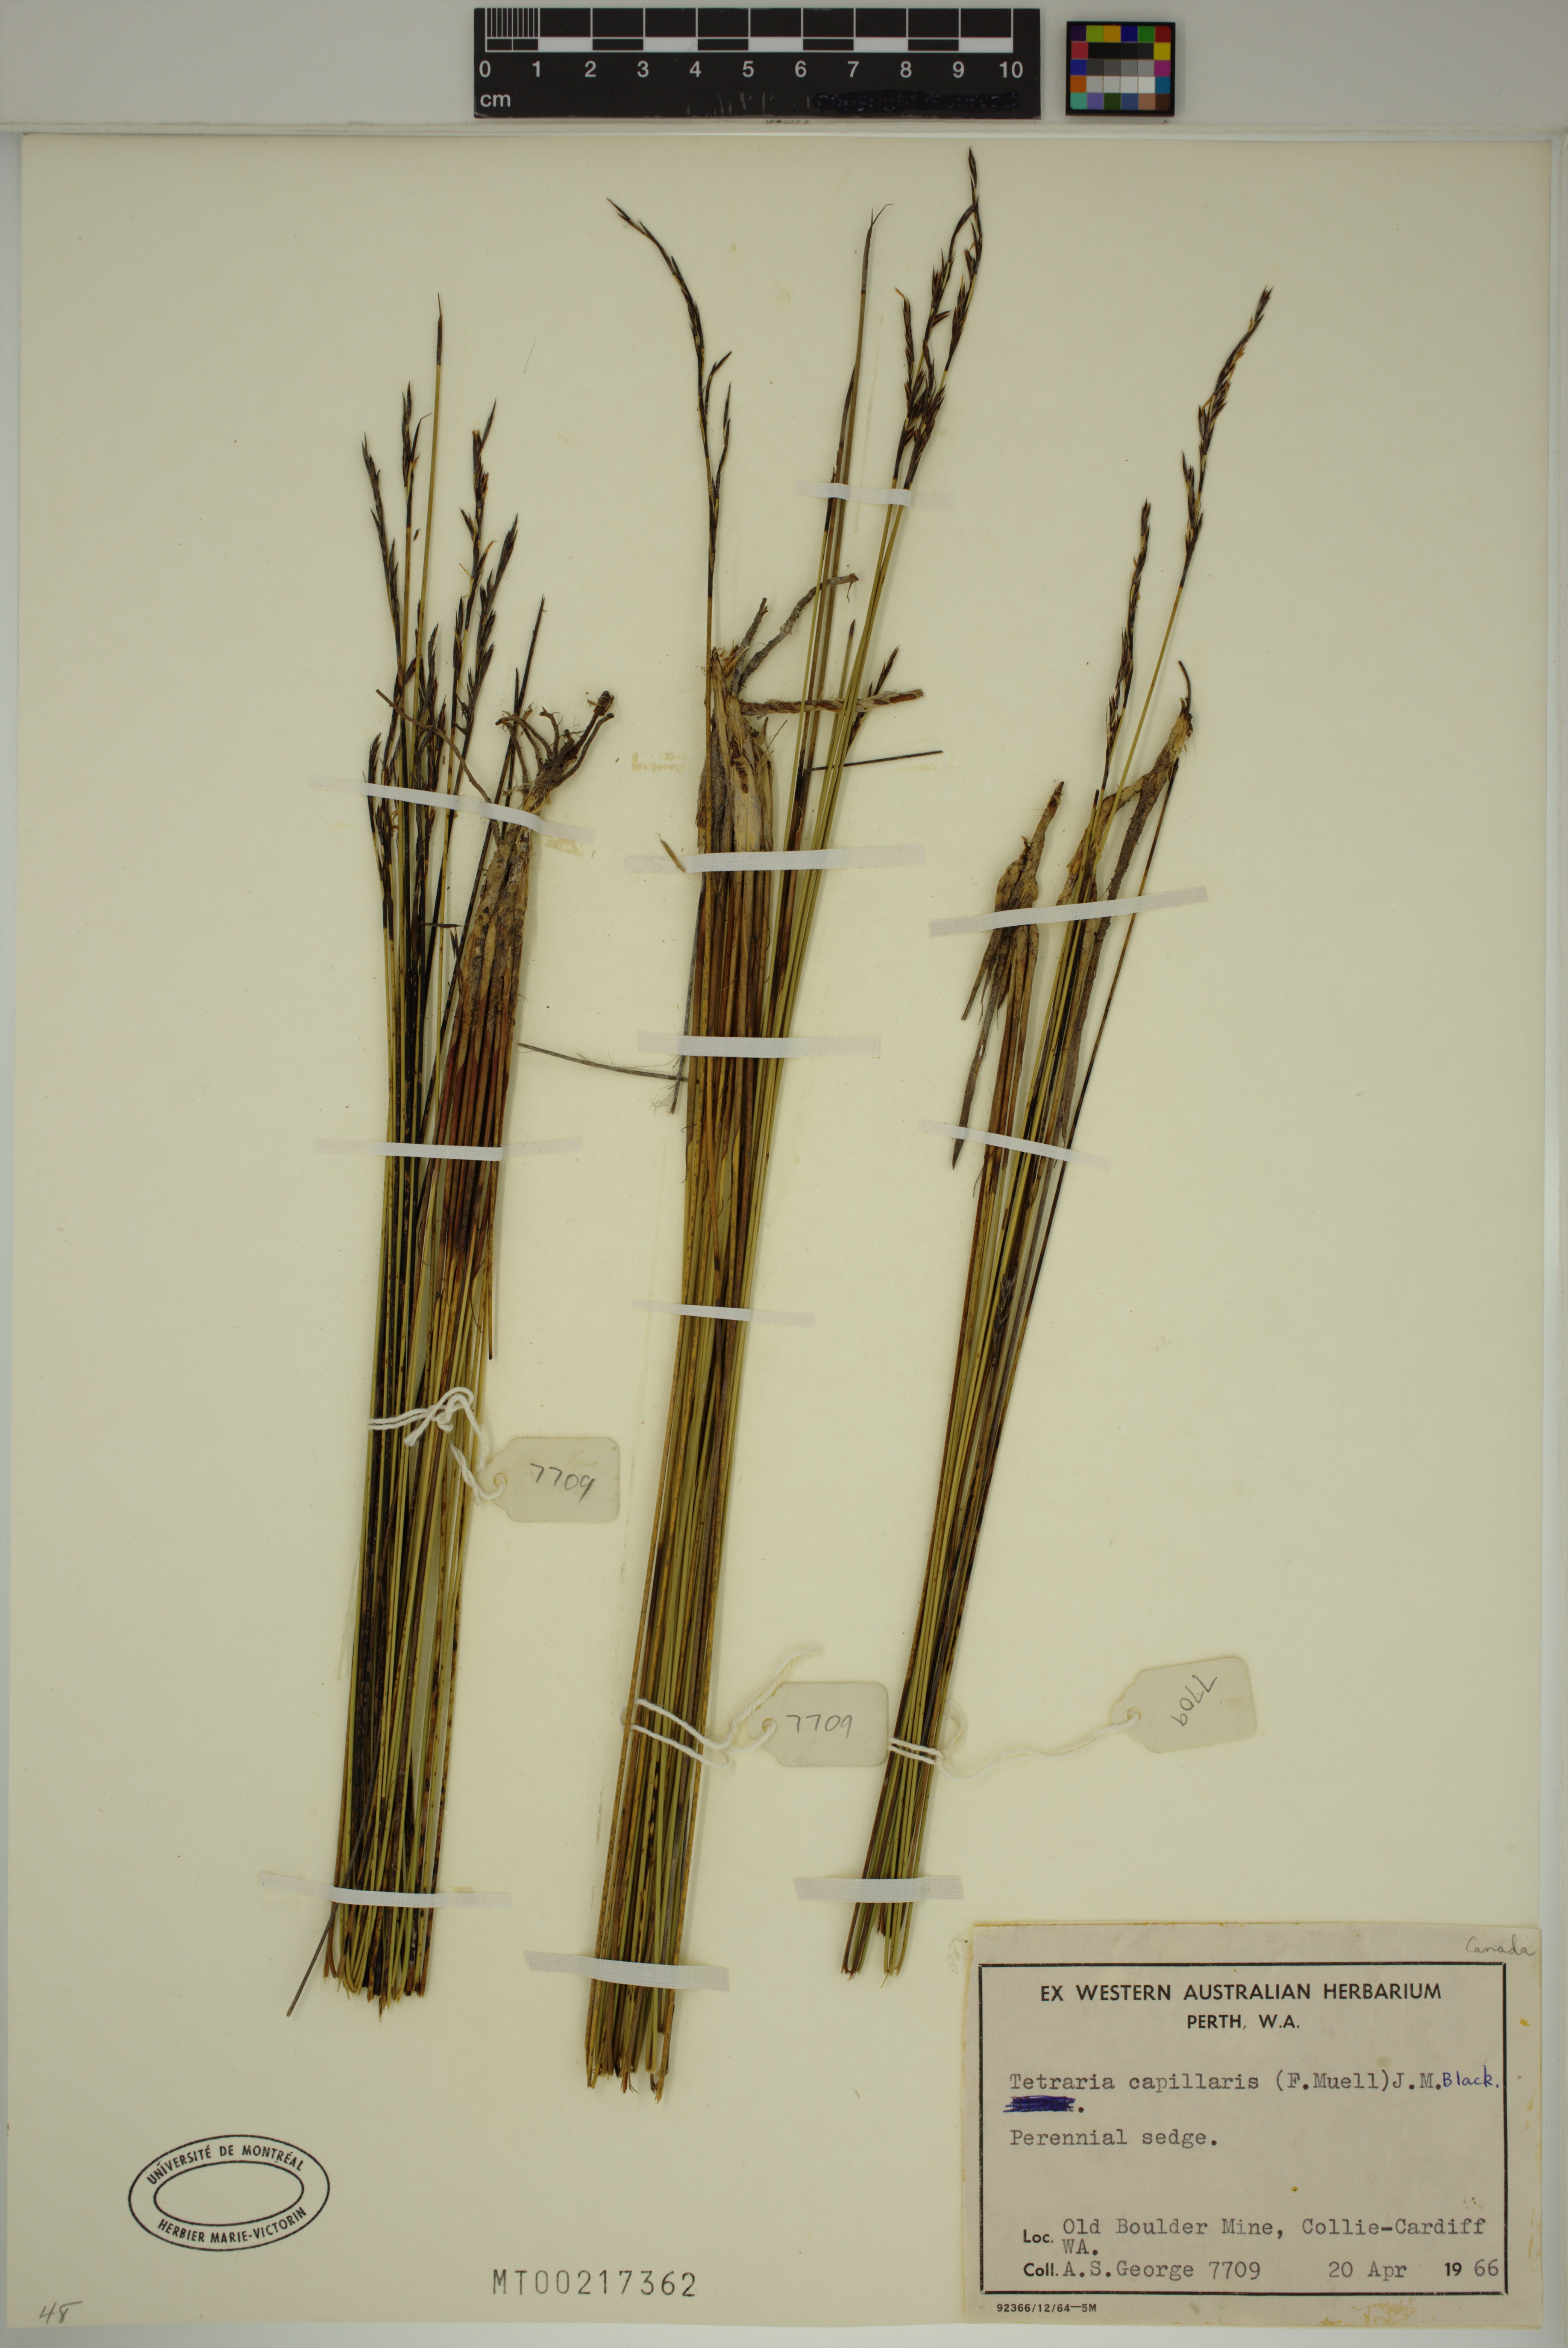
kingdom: Plantae
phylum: Tracheophyta
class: Liliopsida
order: Poales
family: Cyperaceae
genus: Tetraria
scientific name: Tetraria capillaris
